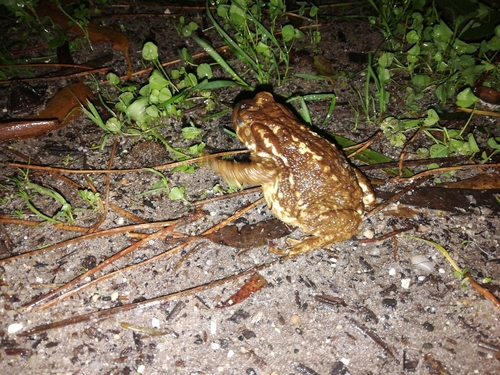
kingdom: Animalia
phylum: Chordata
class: Amphibia
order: Anura
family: Bufonidae
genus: Bufo
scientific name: Bufo spinosus
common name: Western common toad
